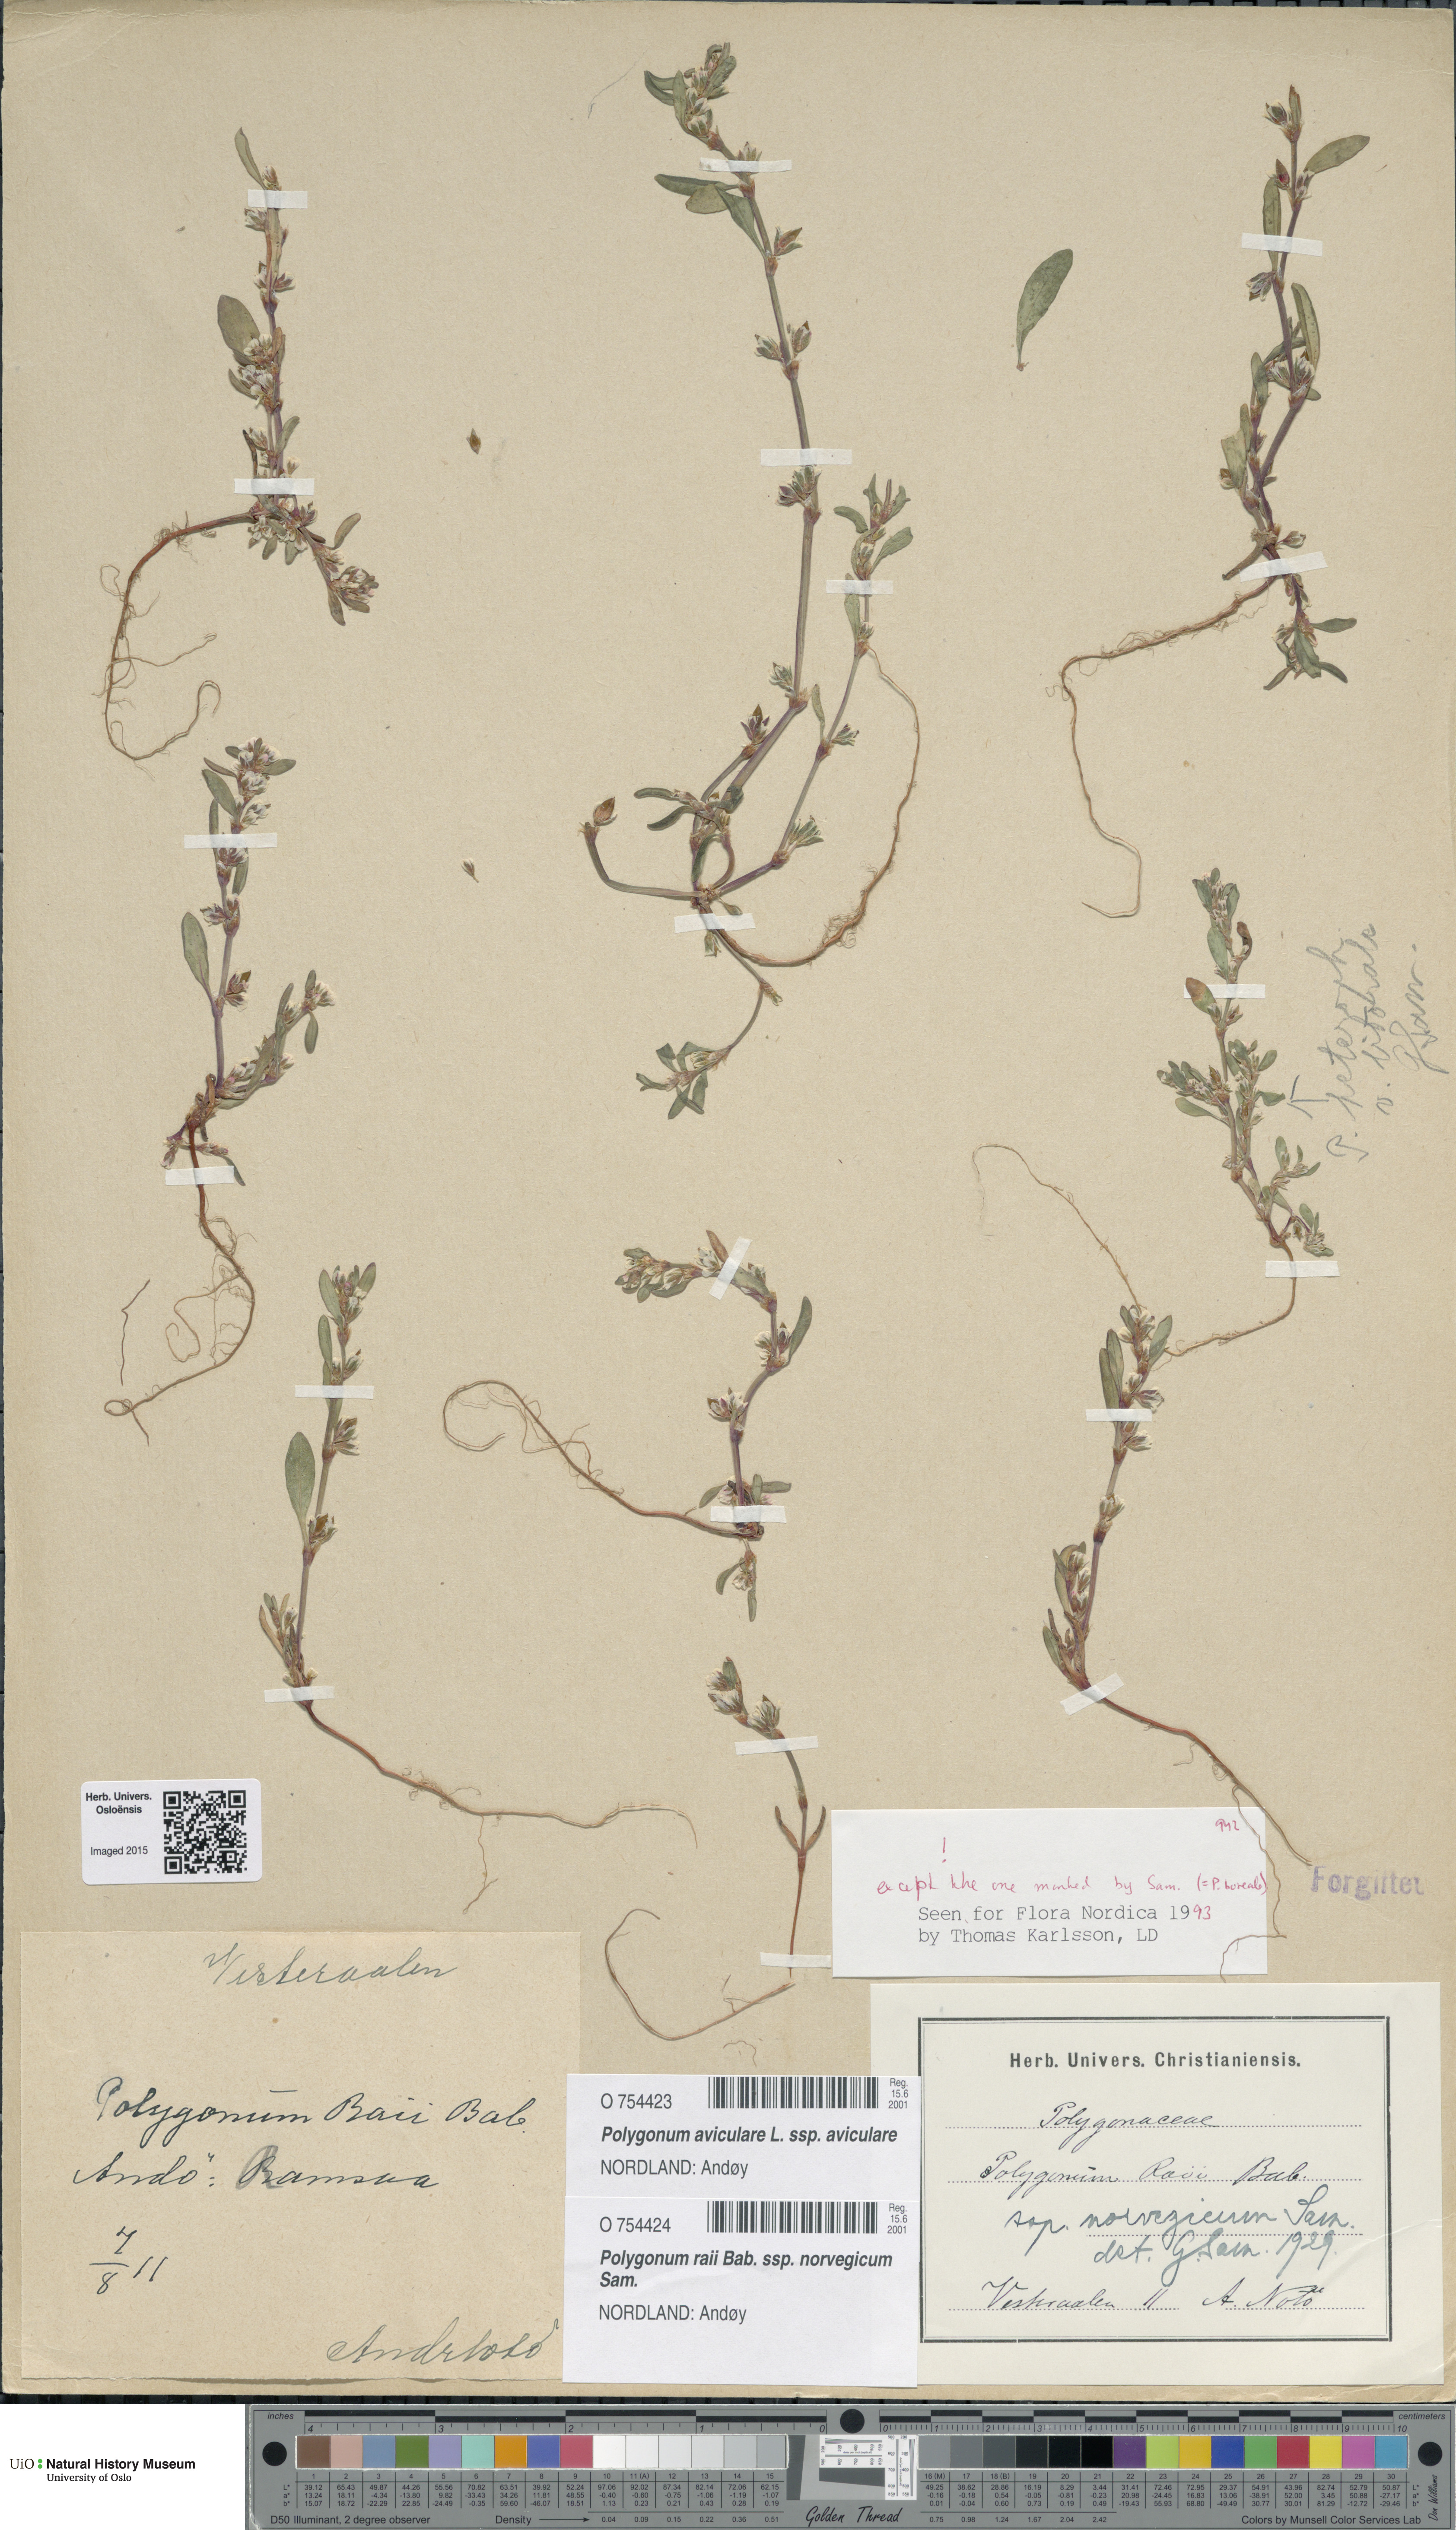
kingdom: Plantae
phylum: Tracheophyta
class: Magnoliopsida
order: Caryophyllales
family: Polygonaceae
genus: Polygonum
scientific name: Polygonum norvegicum
